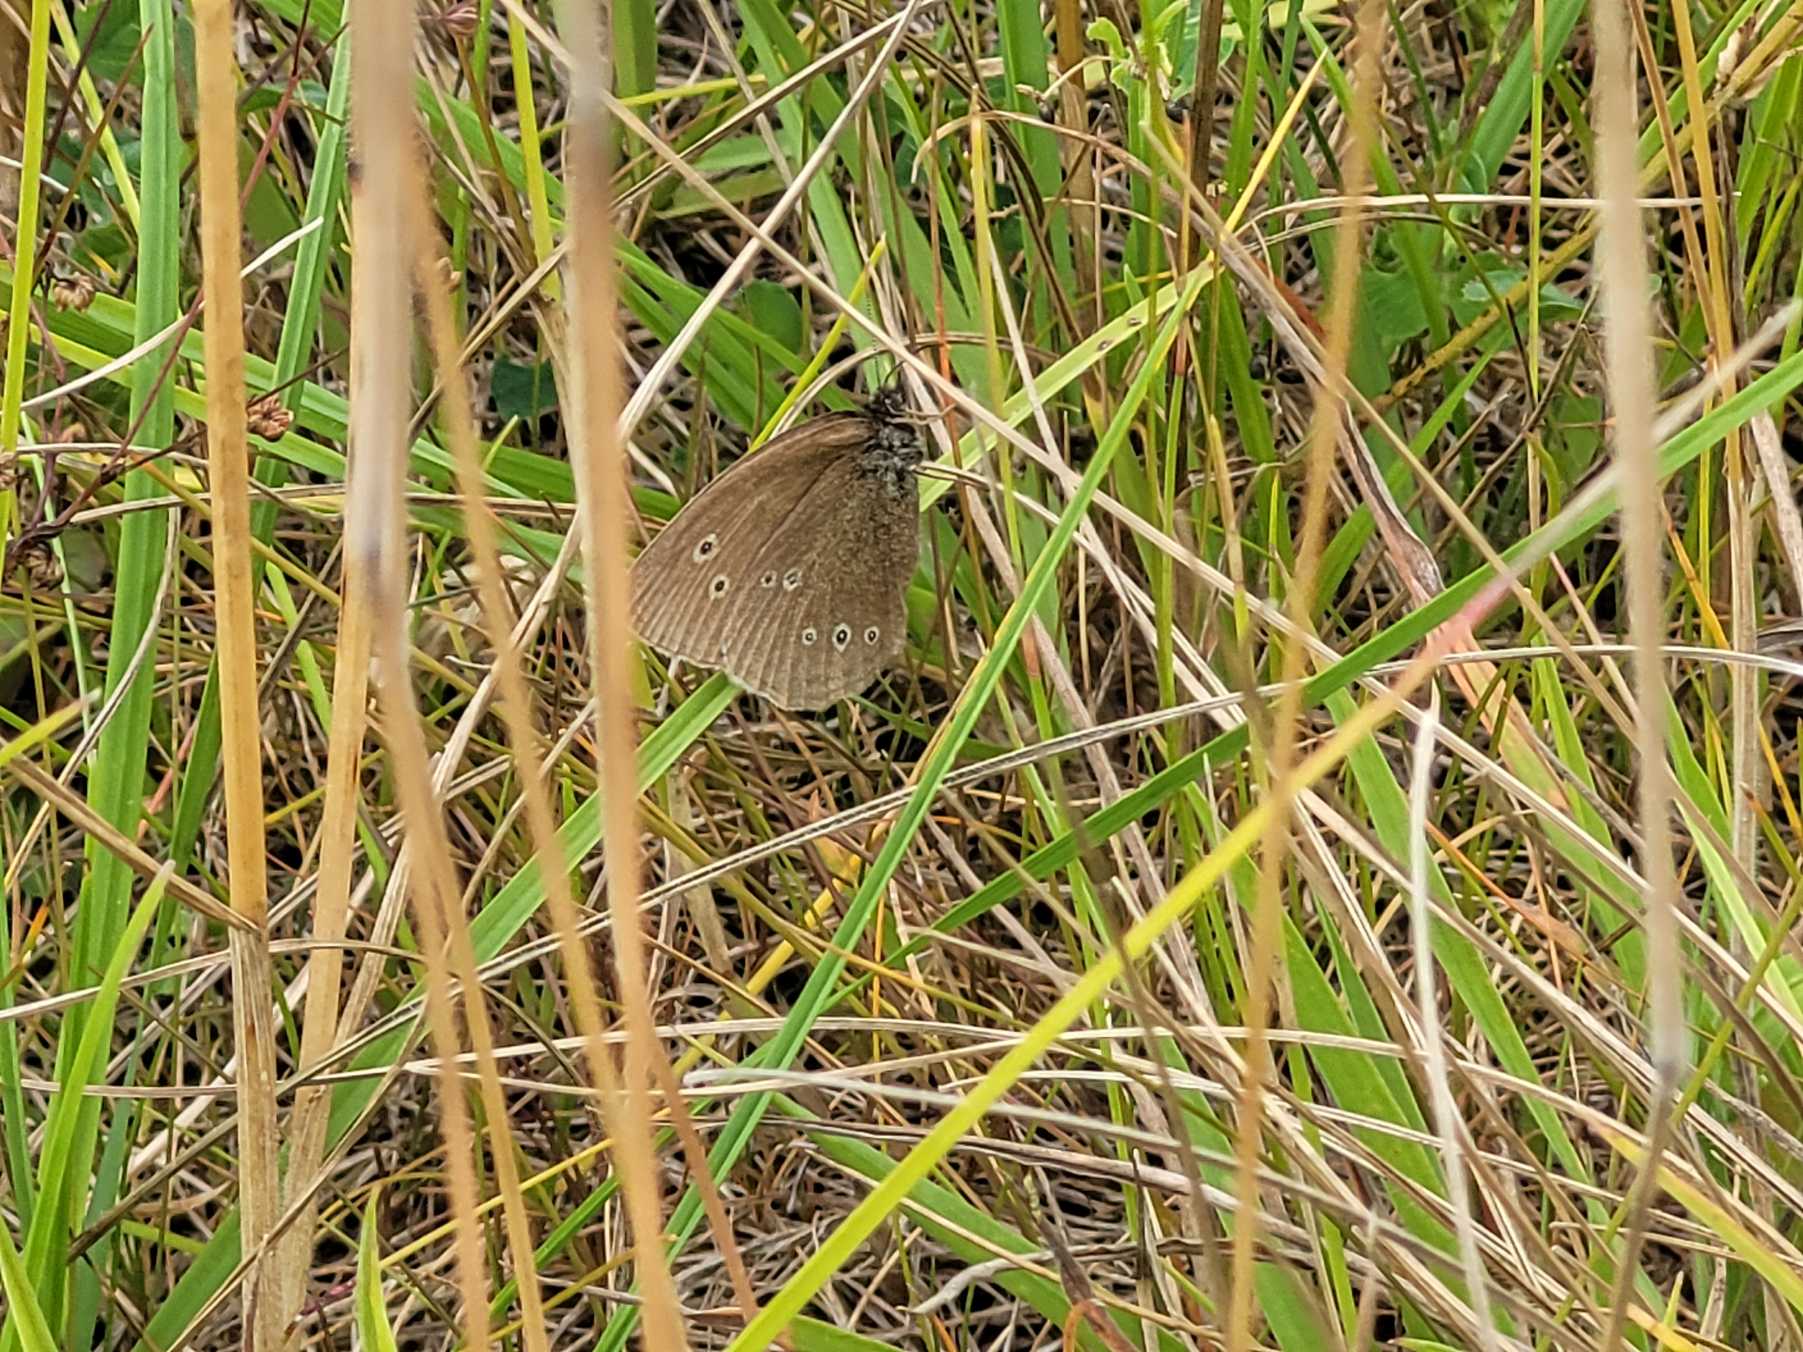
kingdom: Animalia
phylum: Arthropoda
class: Insecta
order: Lepidoptera
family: Nymphalidae
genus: Aphantopus
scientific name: Aphantopus hyperantus
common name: Engrandøje
